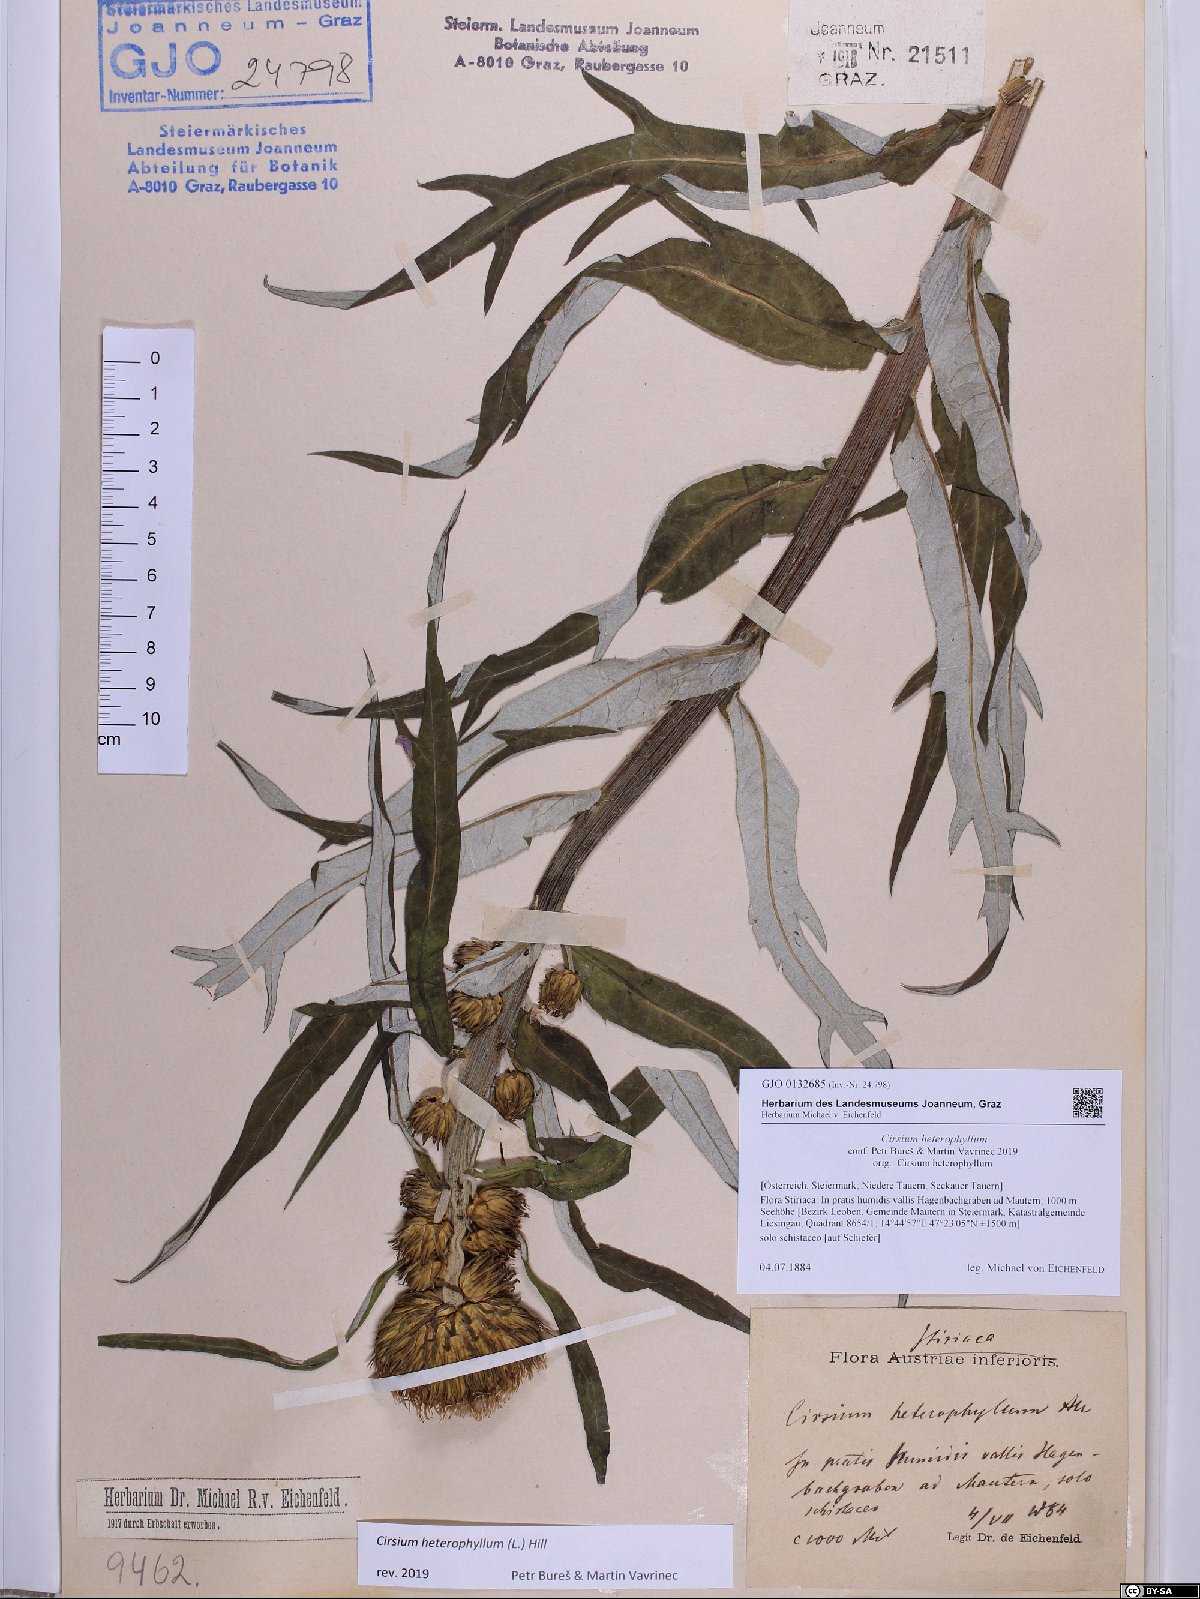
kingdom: Plantae
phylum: Tracheophyta
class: Magnoliopsida
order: Asterales
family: Asteraceae
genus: Cirsium
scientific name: Cirsium heterophyllum
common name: Melancholy thistle
